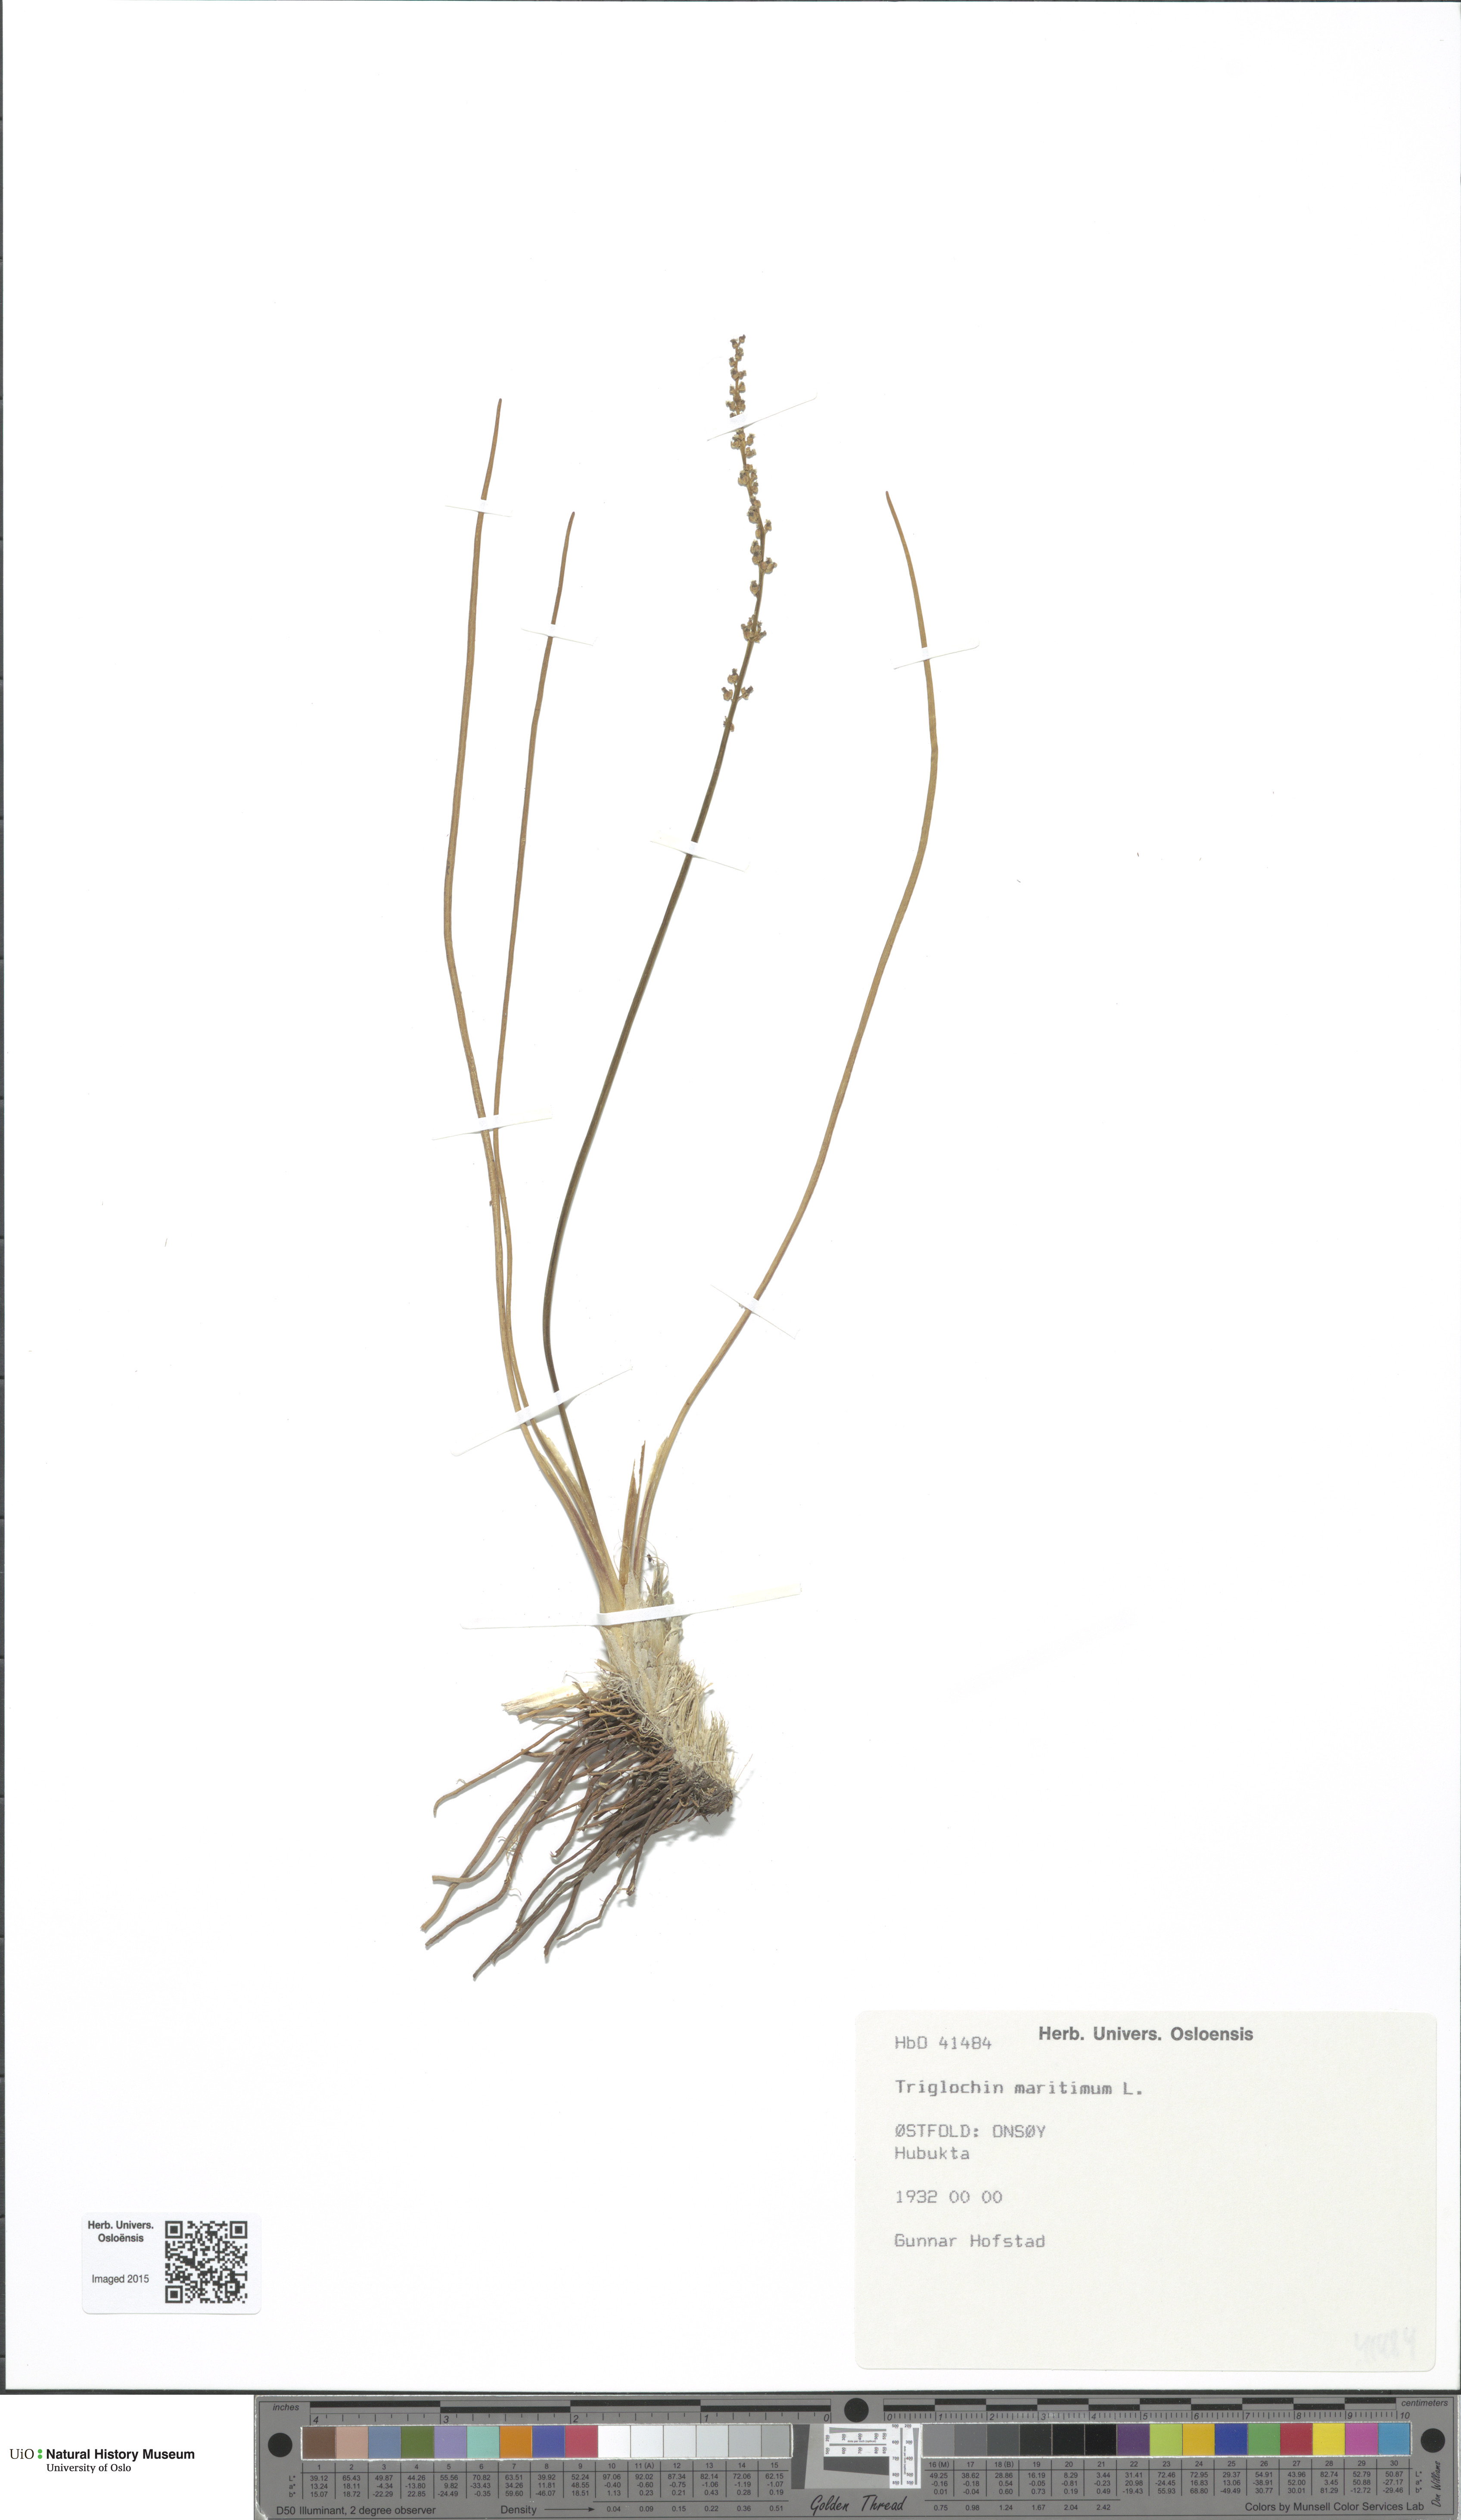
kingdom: Plantae
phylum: Tracheophyta
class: Liliopsida
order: Alismatales
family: Juncaginaceae
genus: Triglochin
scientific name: Triglochin maritima
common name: Sea arrowgrass
